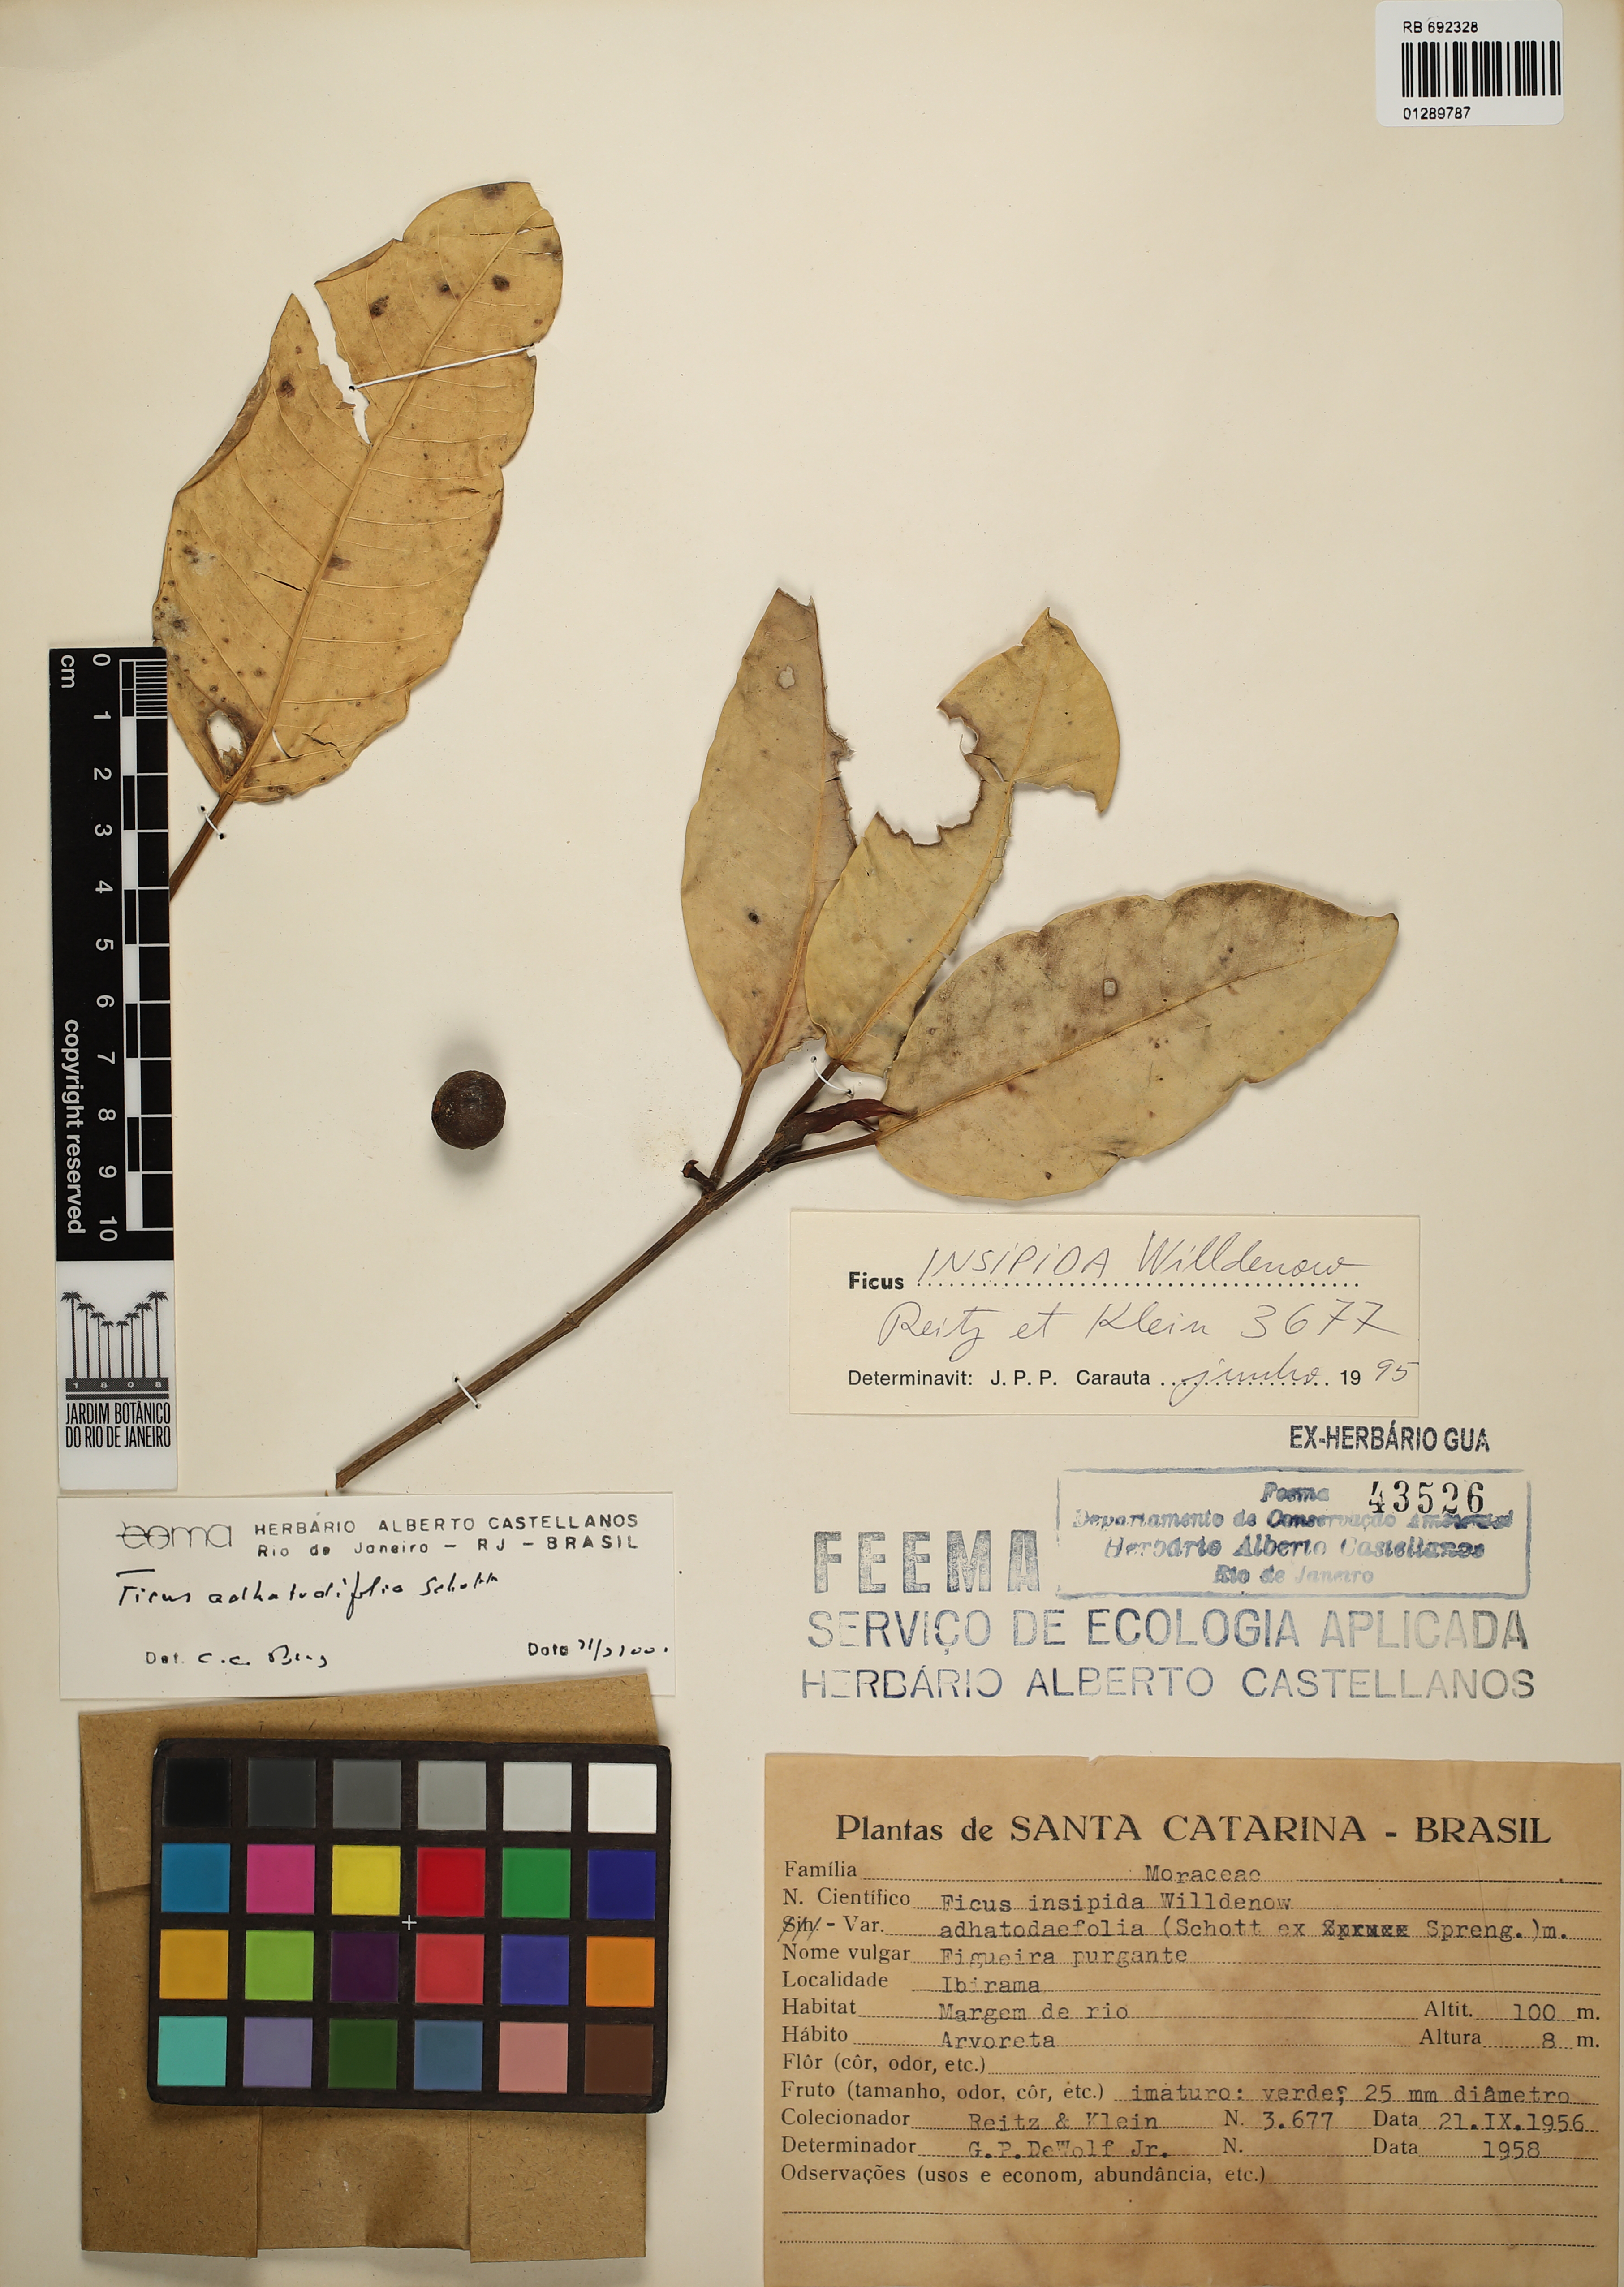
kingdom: Plantae
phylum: Tracheophyta
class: Magnoliopsida
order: Rosales
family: Moraceae
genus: Ficus
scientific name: Ficus adhatodifolia
